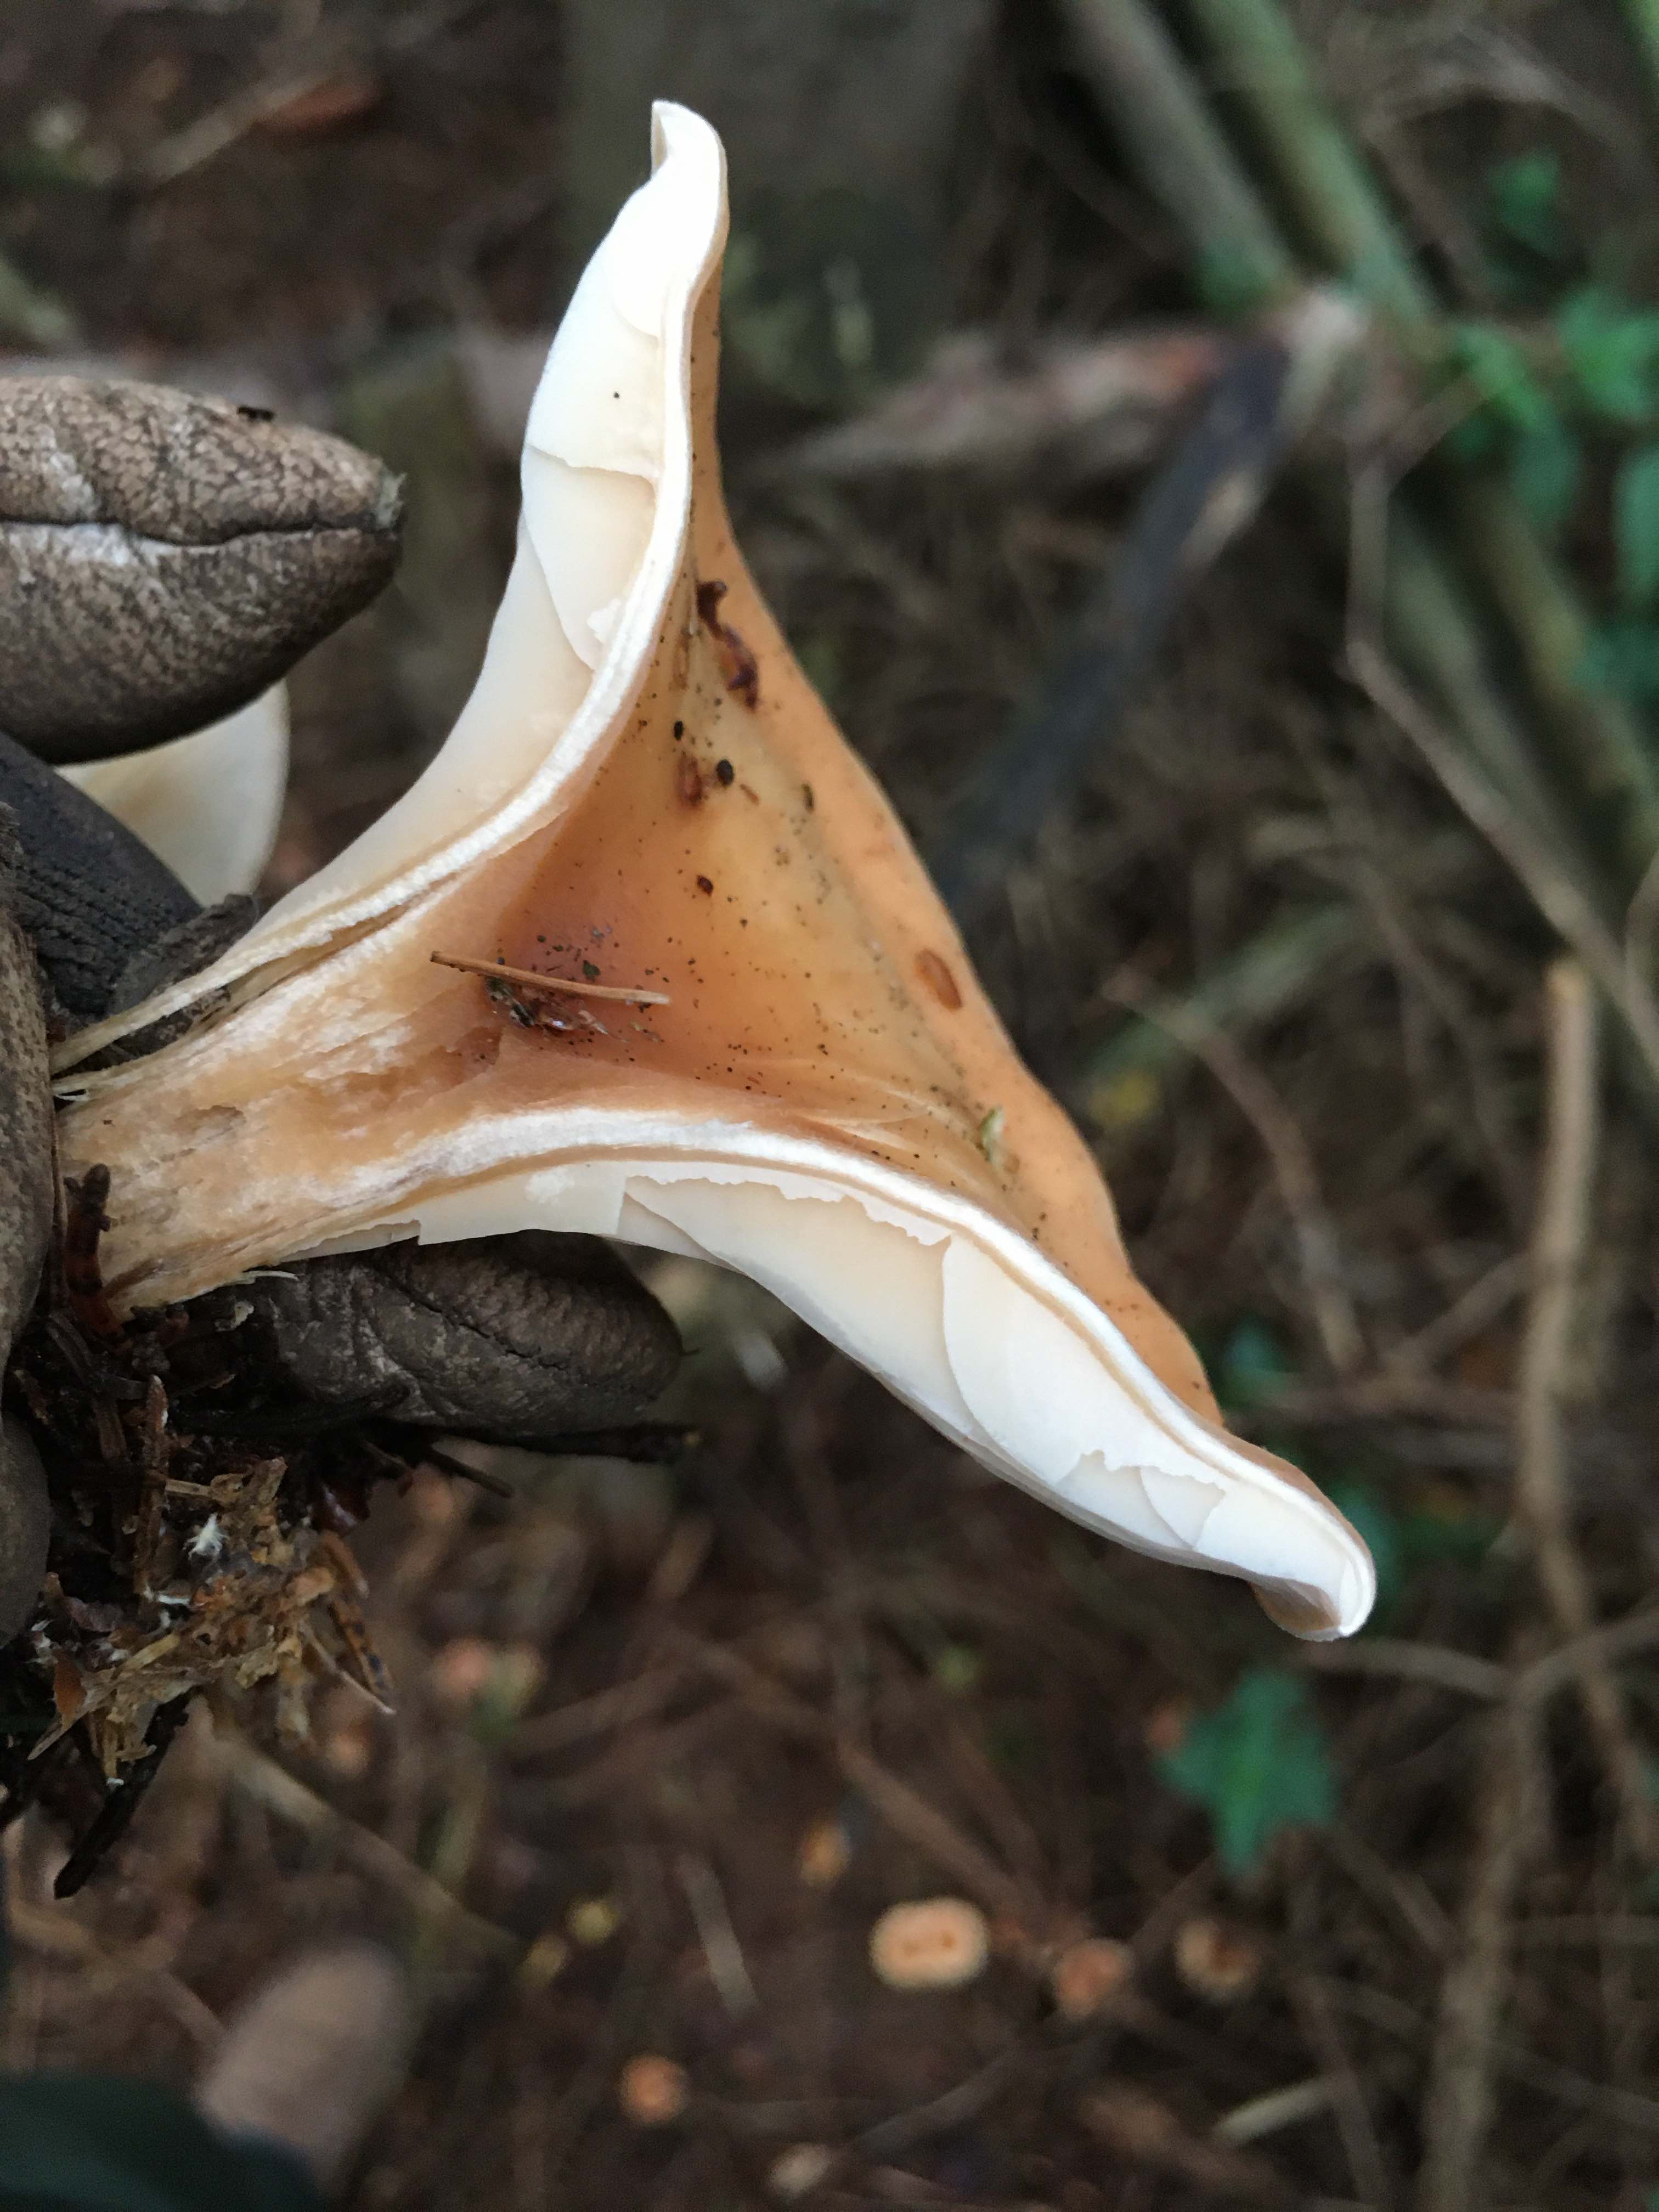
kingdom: Fungi
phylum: Basidiomycota
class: Agaricomycetes
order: Agaricales
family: Tricholomataceae
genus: Paralepista
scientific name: Paralepista flaccida
